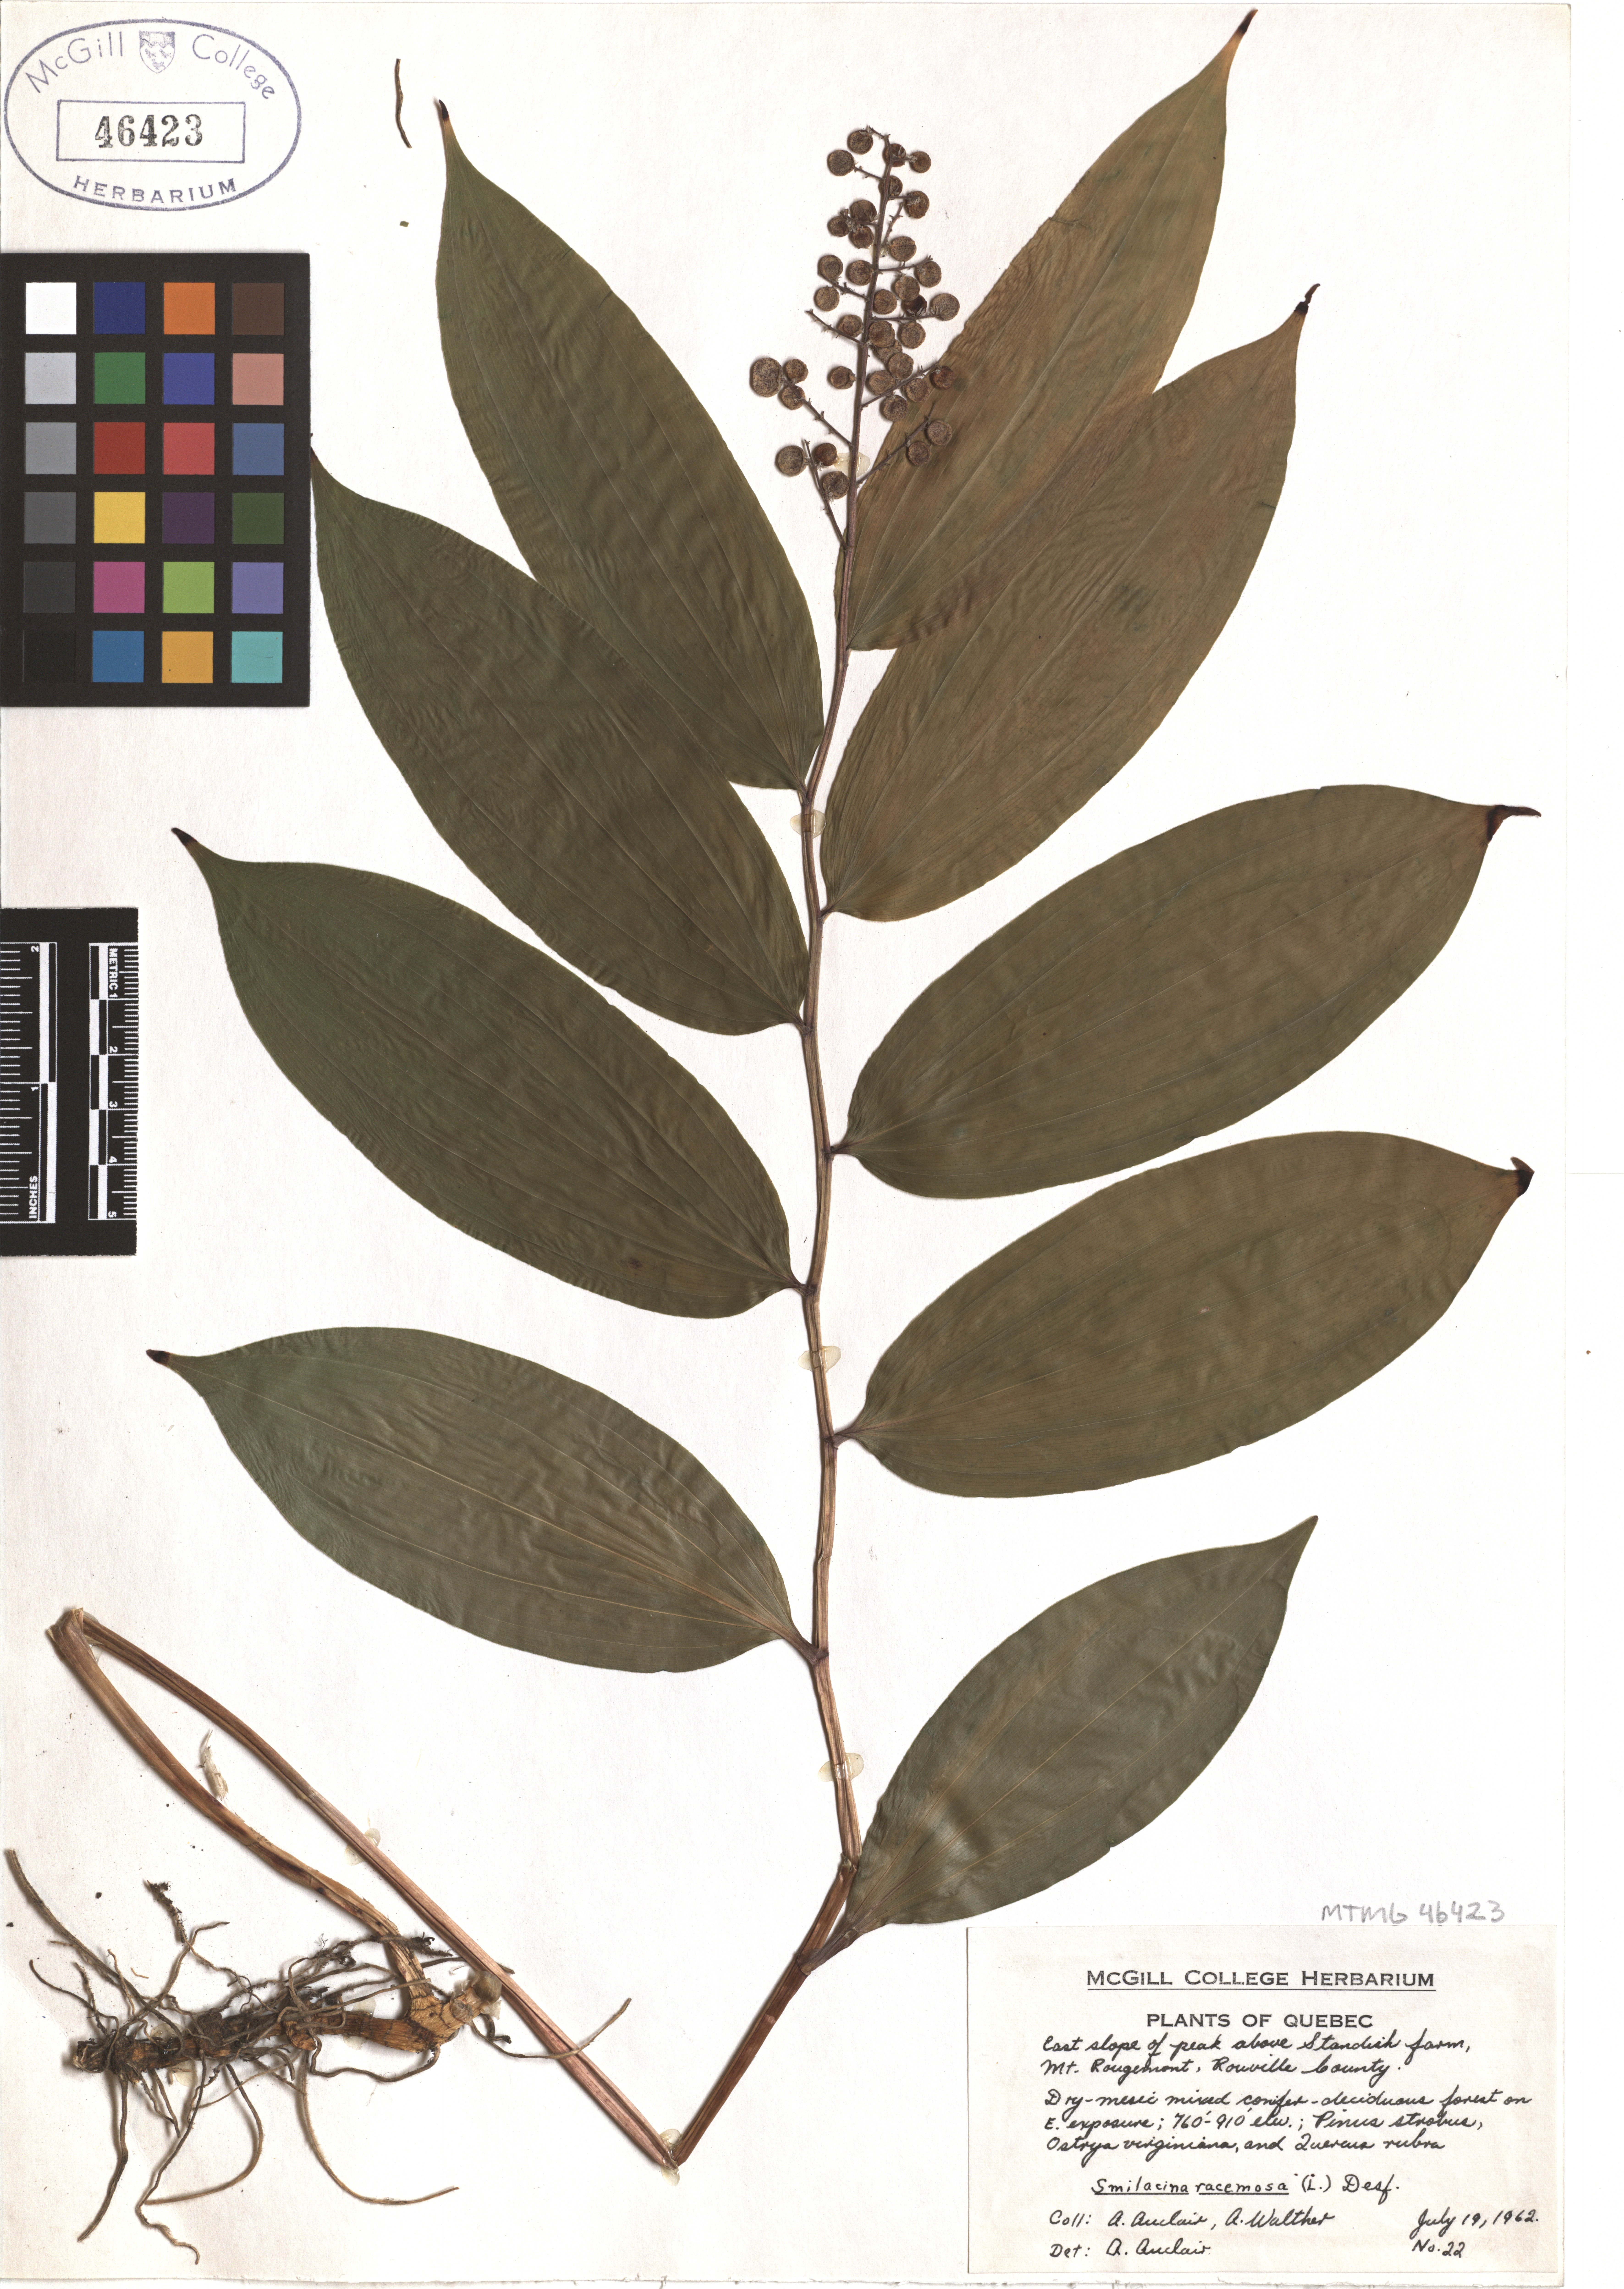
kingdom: Plantae
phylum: Tracheophyta
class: Liliopsida
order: Asparagales
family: Asparagaceae
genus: Maianthemum
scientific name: Maianthemum racemosum
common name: False spikenard
